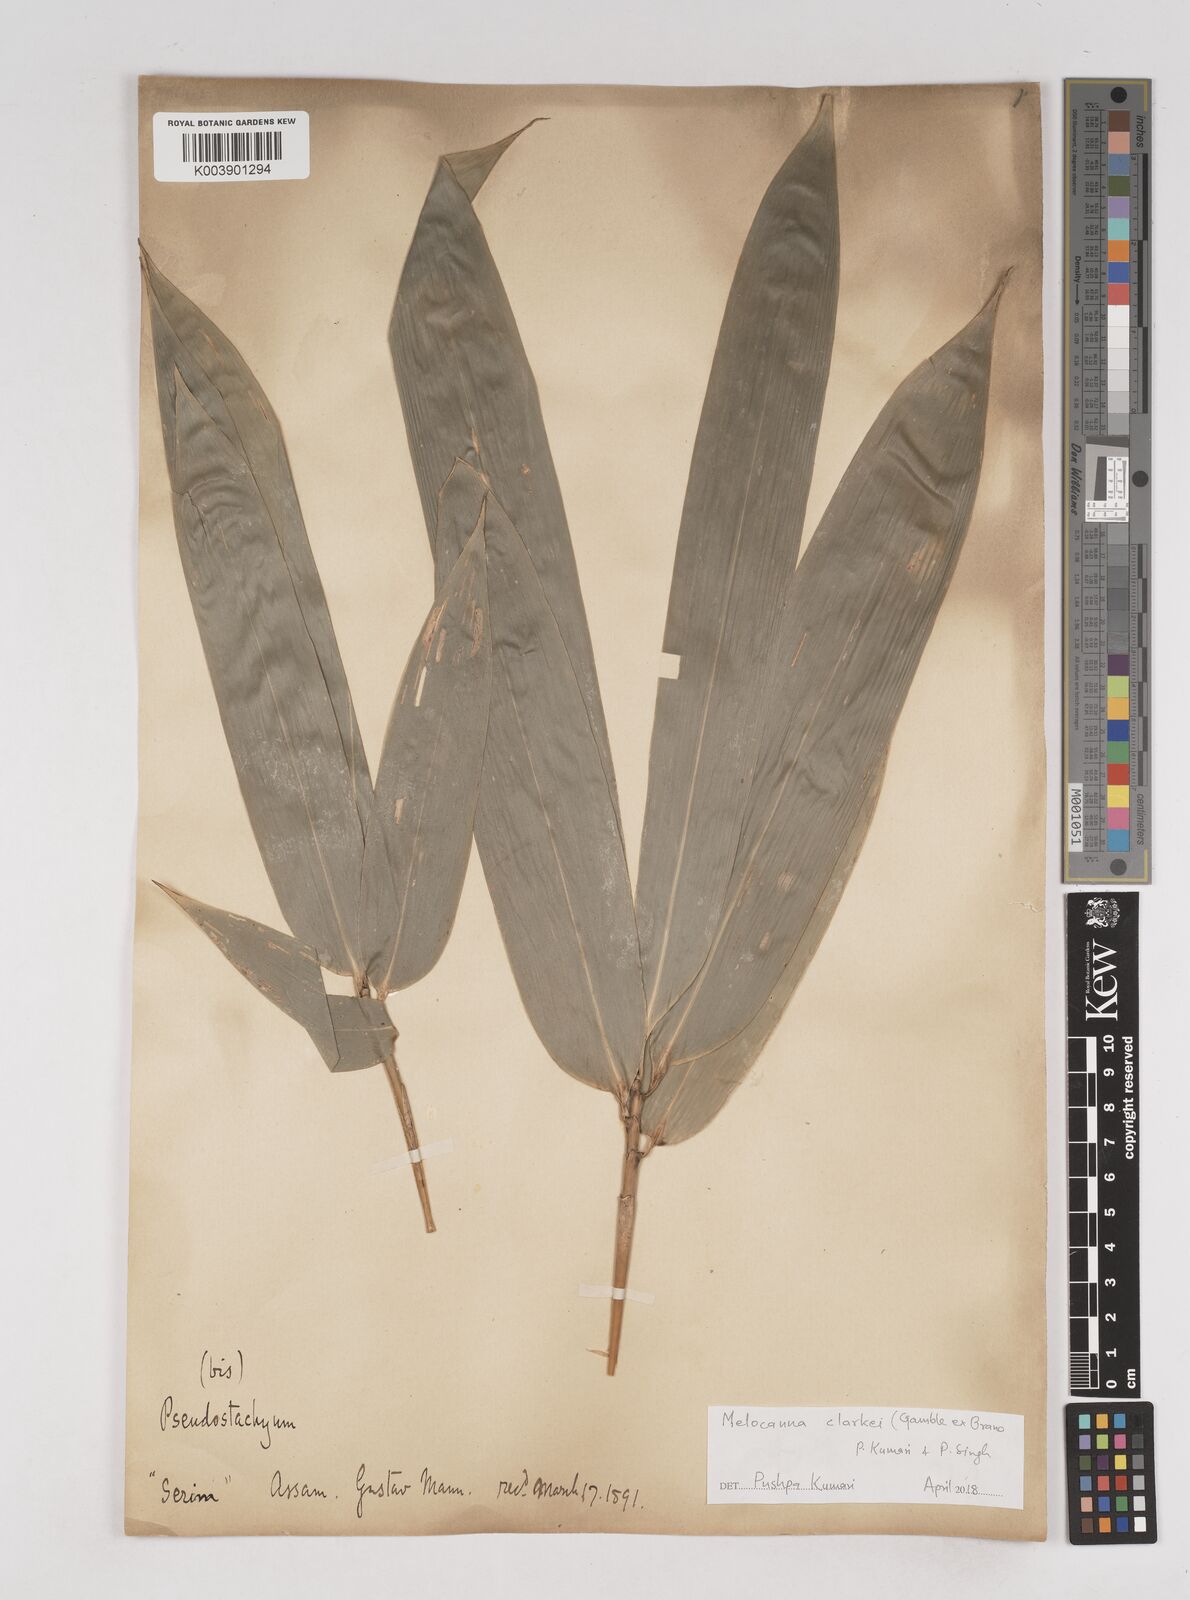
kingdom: Plantae
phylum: Tracheophyta
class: Liliopsida
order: Poales
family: Poaceae
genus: Melocanna
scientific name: Melocanna clarkei
